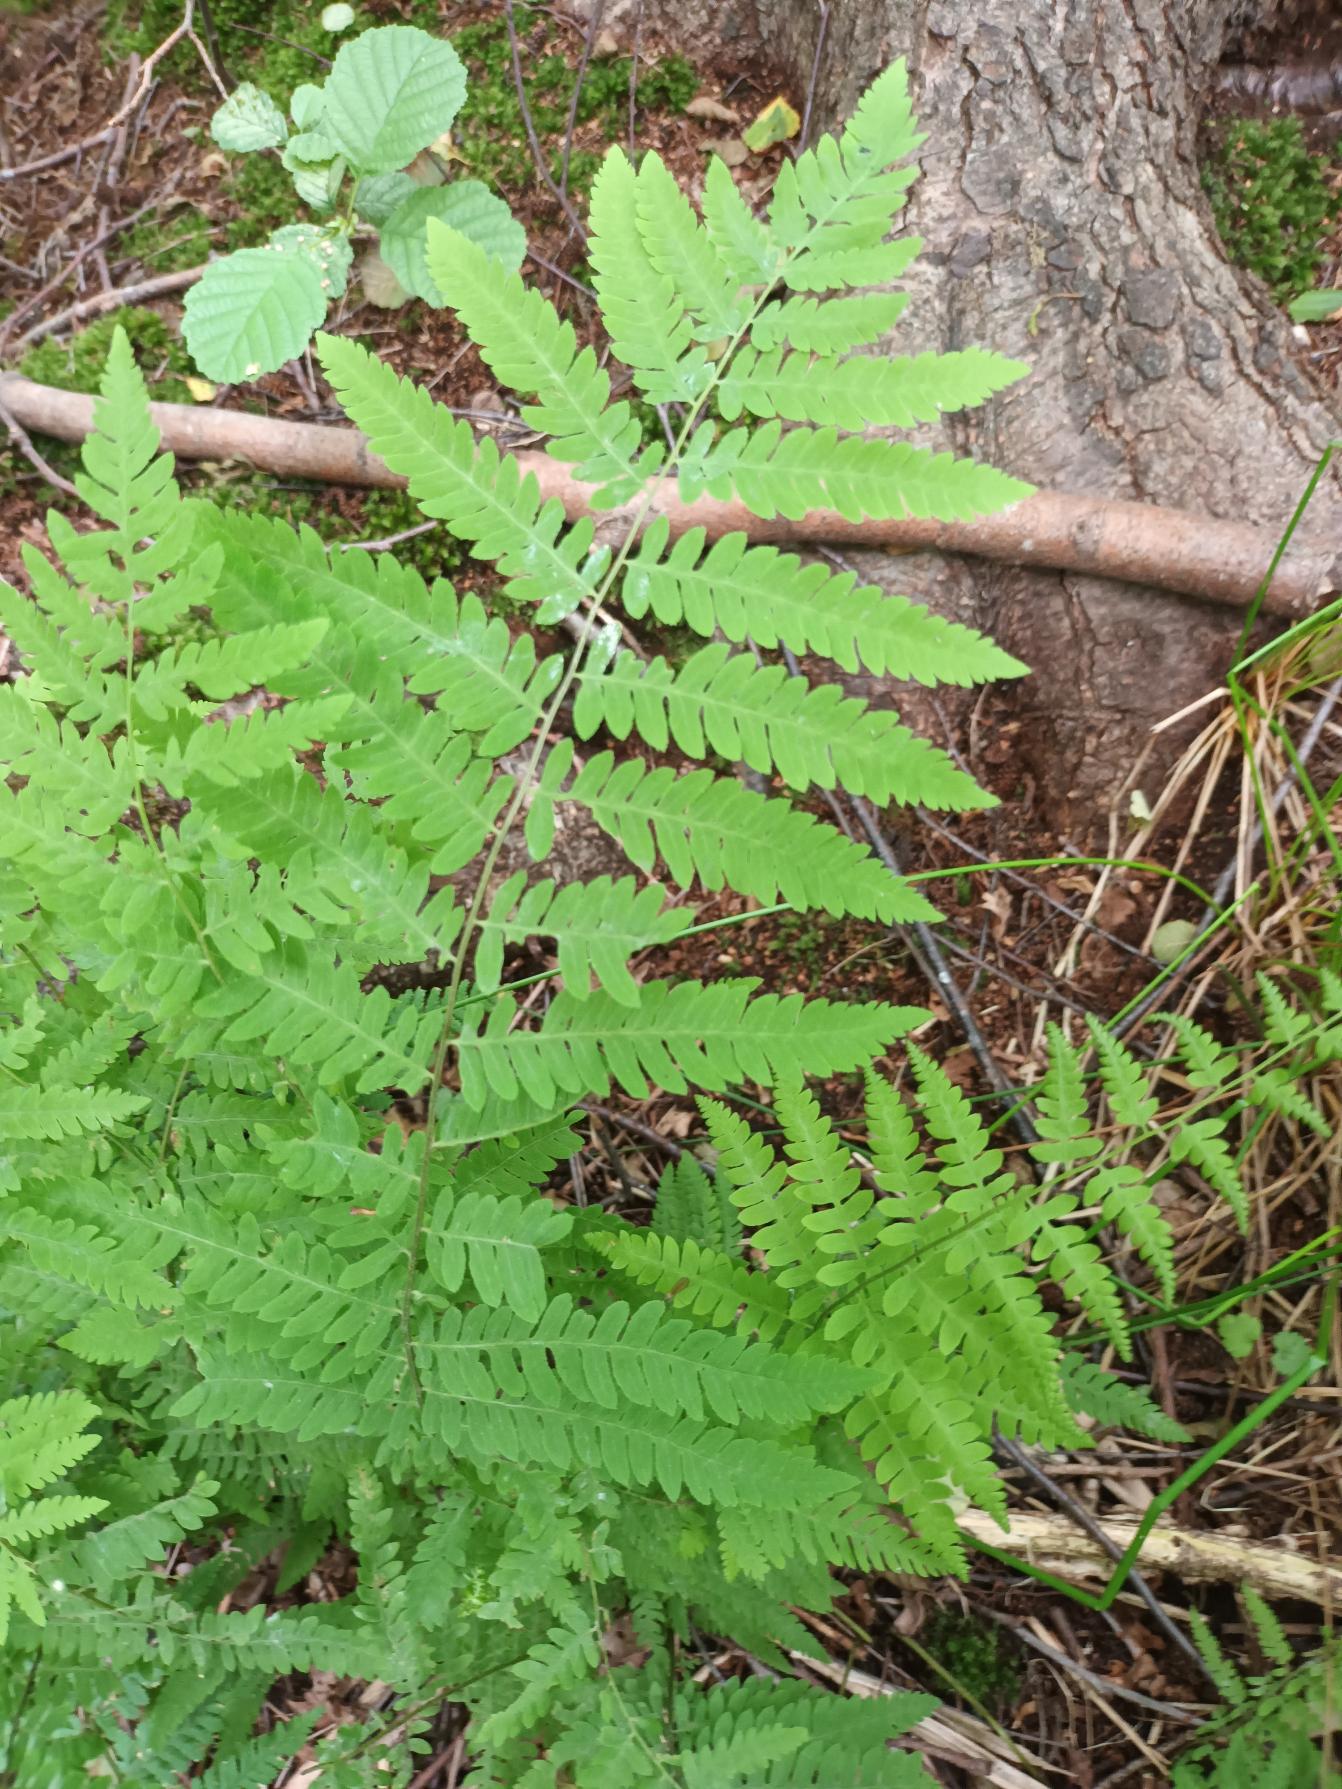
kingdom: Plantae
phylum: Tracheophyta
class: Polypodiopsida
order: Polypodiales
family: Thelypteridaceae
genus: Thelypteris
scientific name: Thelypteris palustris
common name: Kærmangeløv
